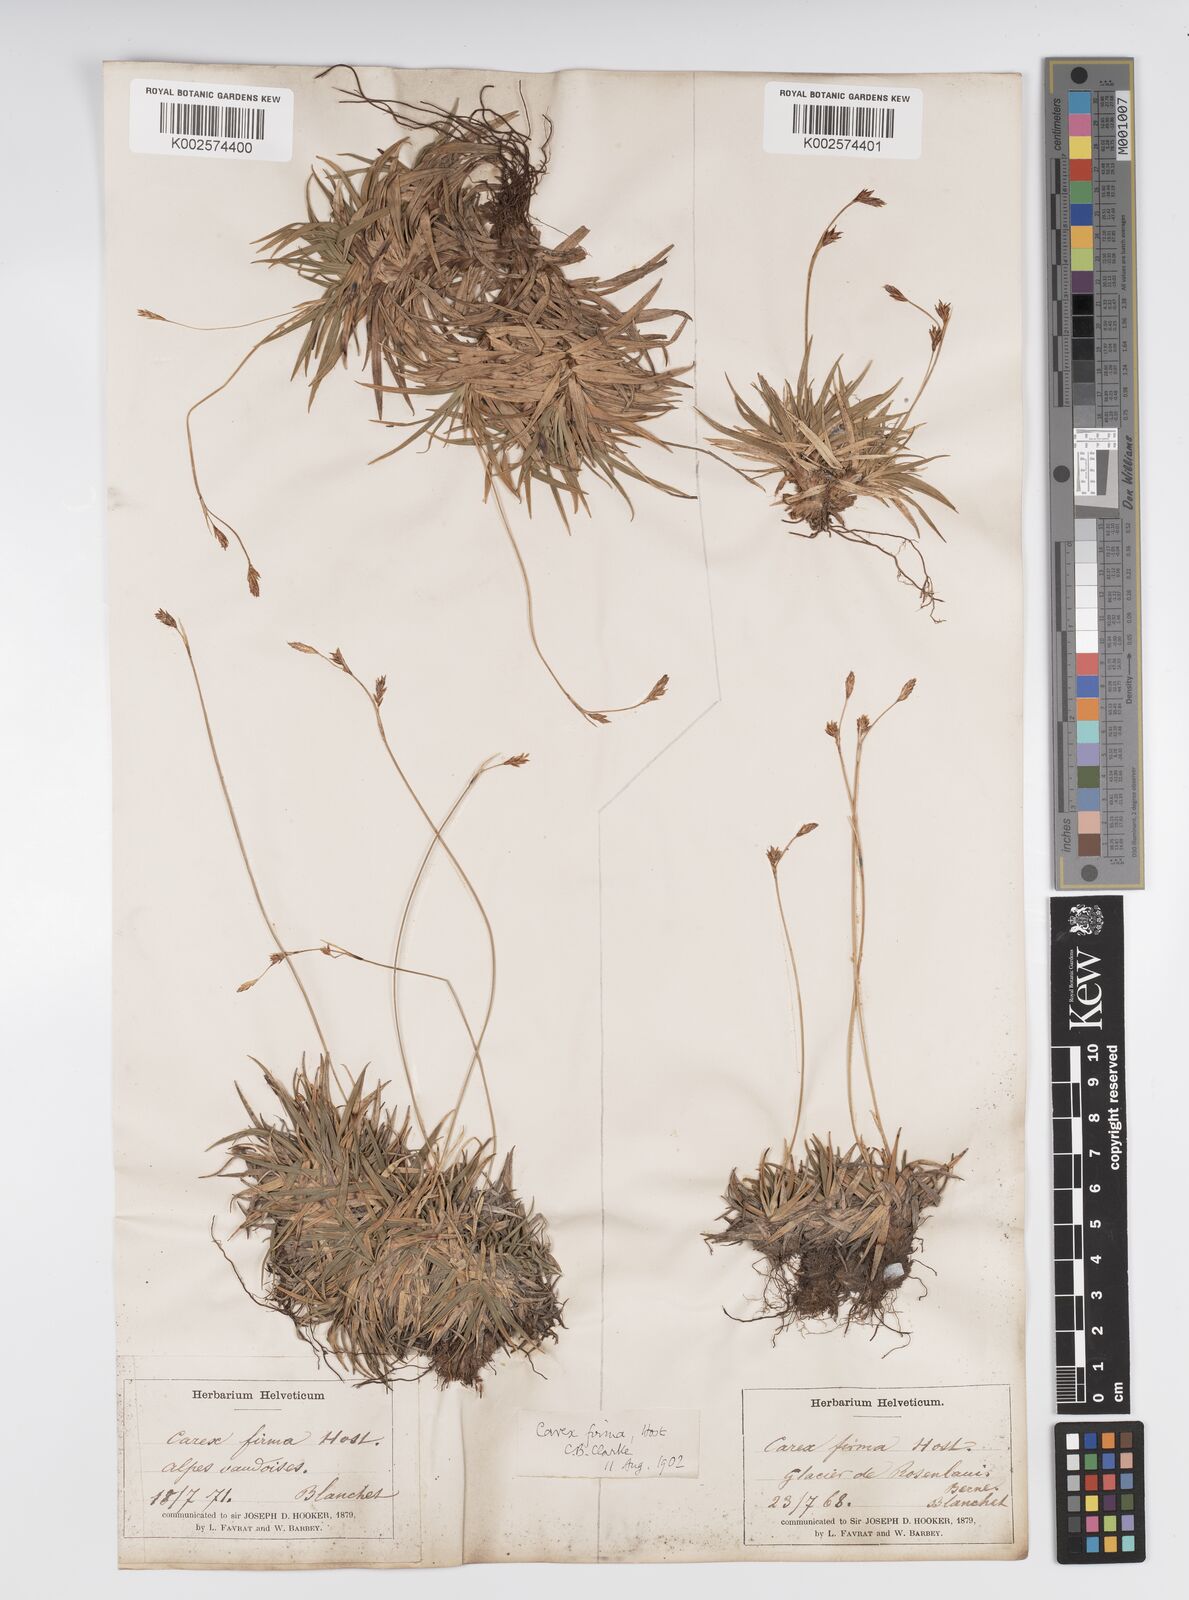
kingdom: Plantae
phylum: Tracheophyta
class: Liliopsida
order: Poales
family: Cyperaceae
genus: Carex
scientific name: Carex firma
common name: Dwarf pillow sedge
